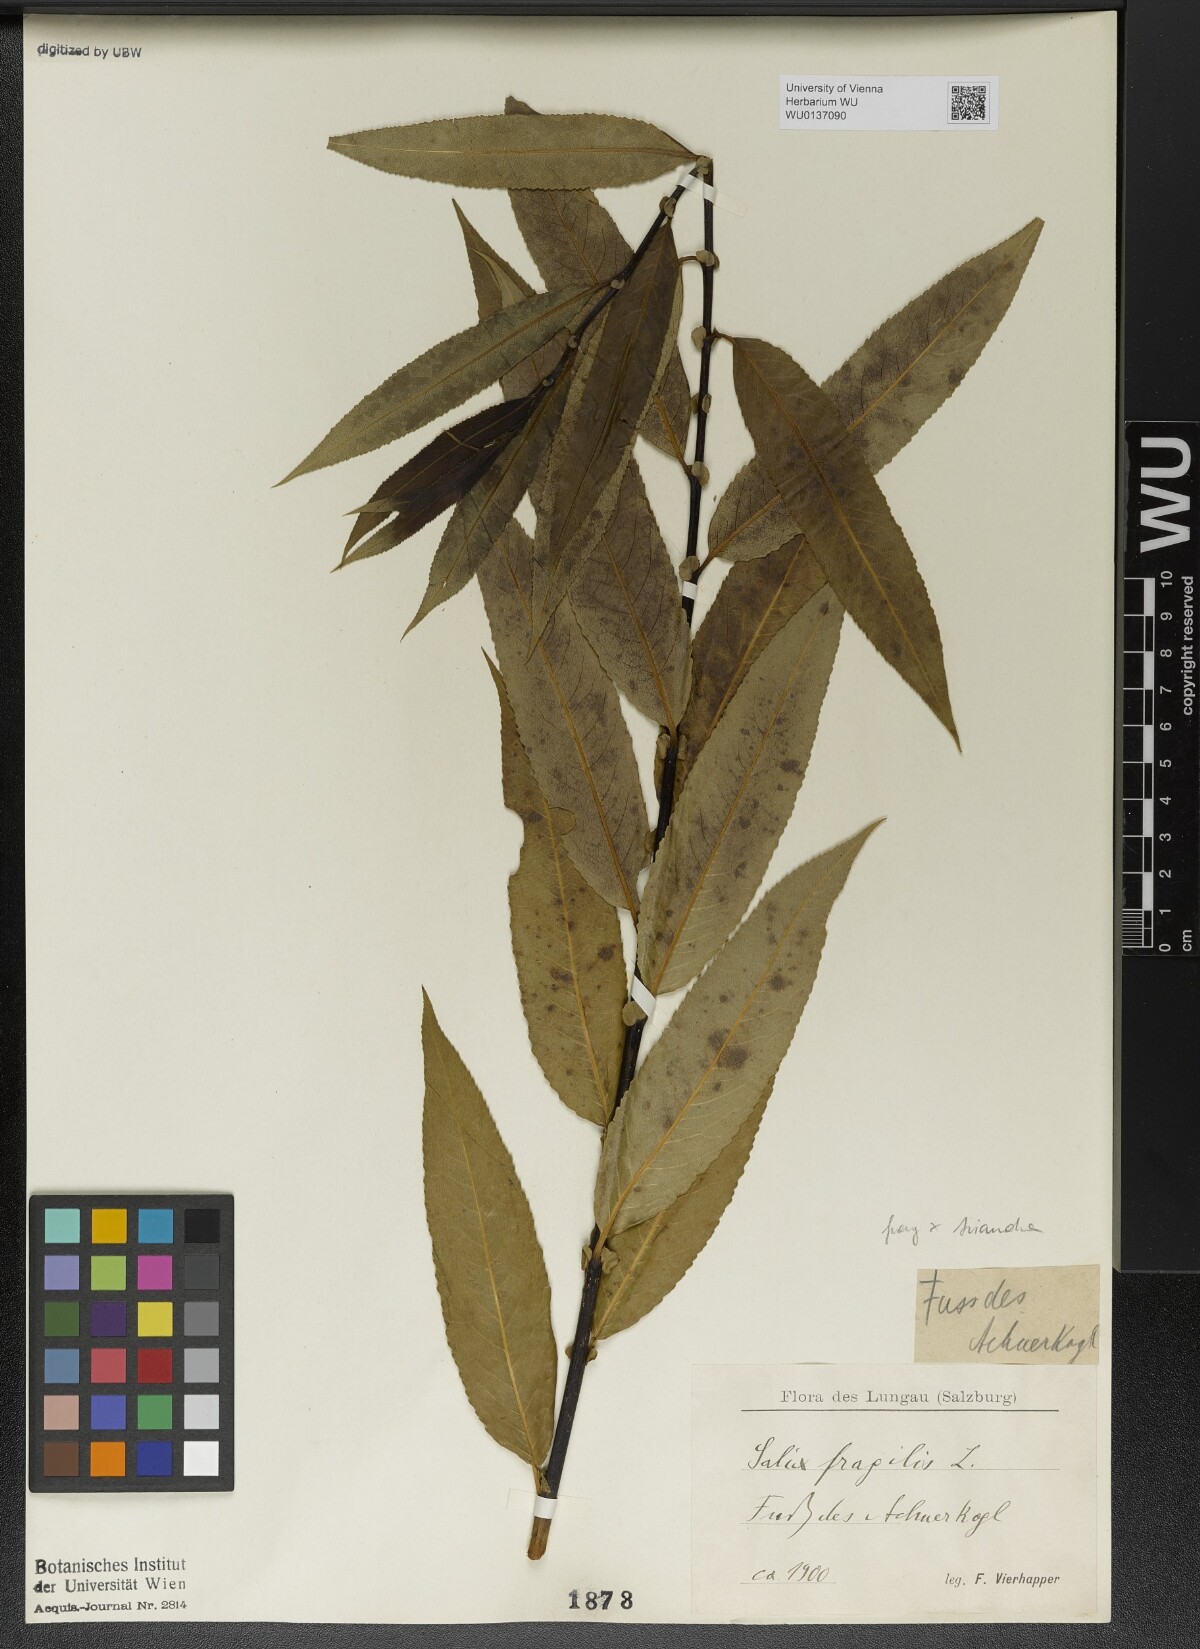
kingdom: Plantae
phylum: Tracheophyta
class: Magnoliopsida
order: Malpighiales
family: Salicaceae
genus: Salix
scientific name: Salix fragilis
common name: Crack willow
